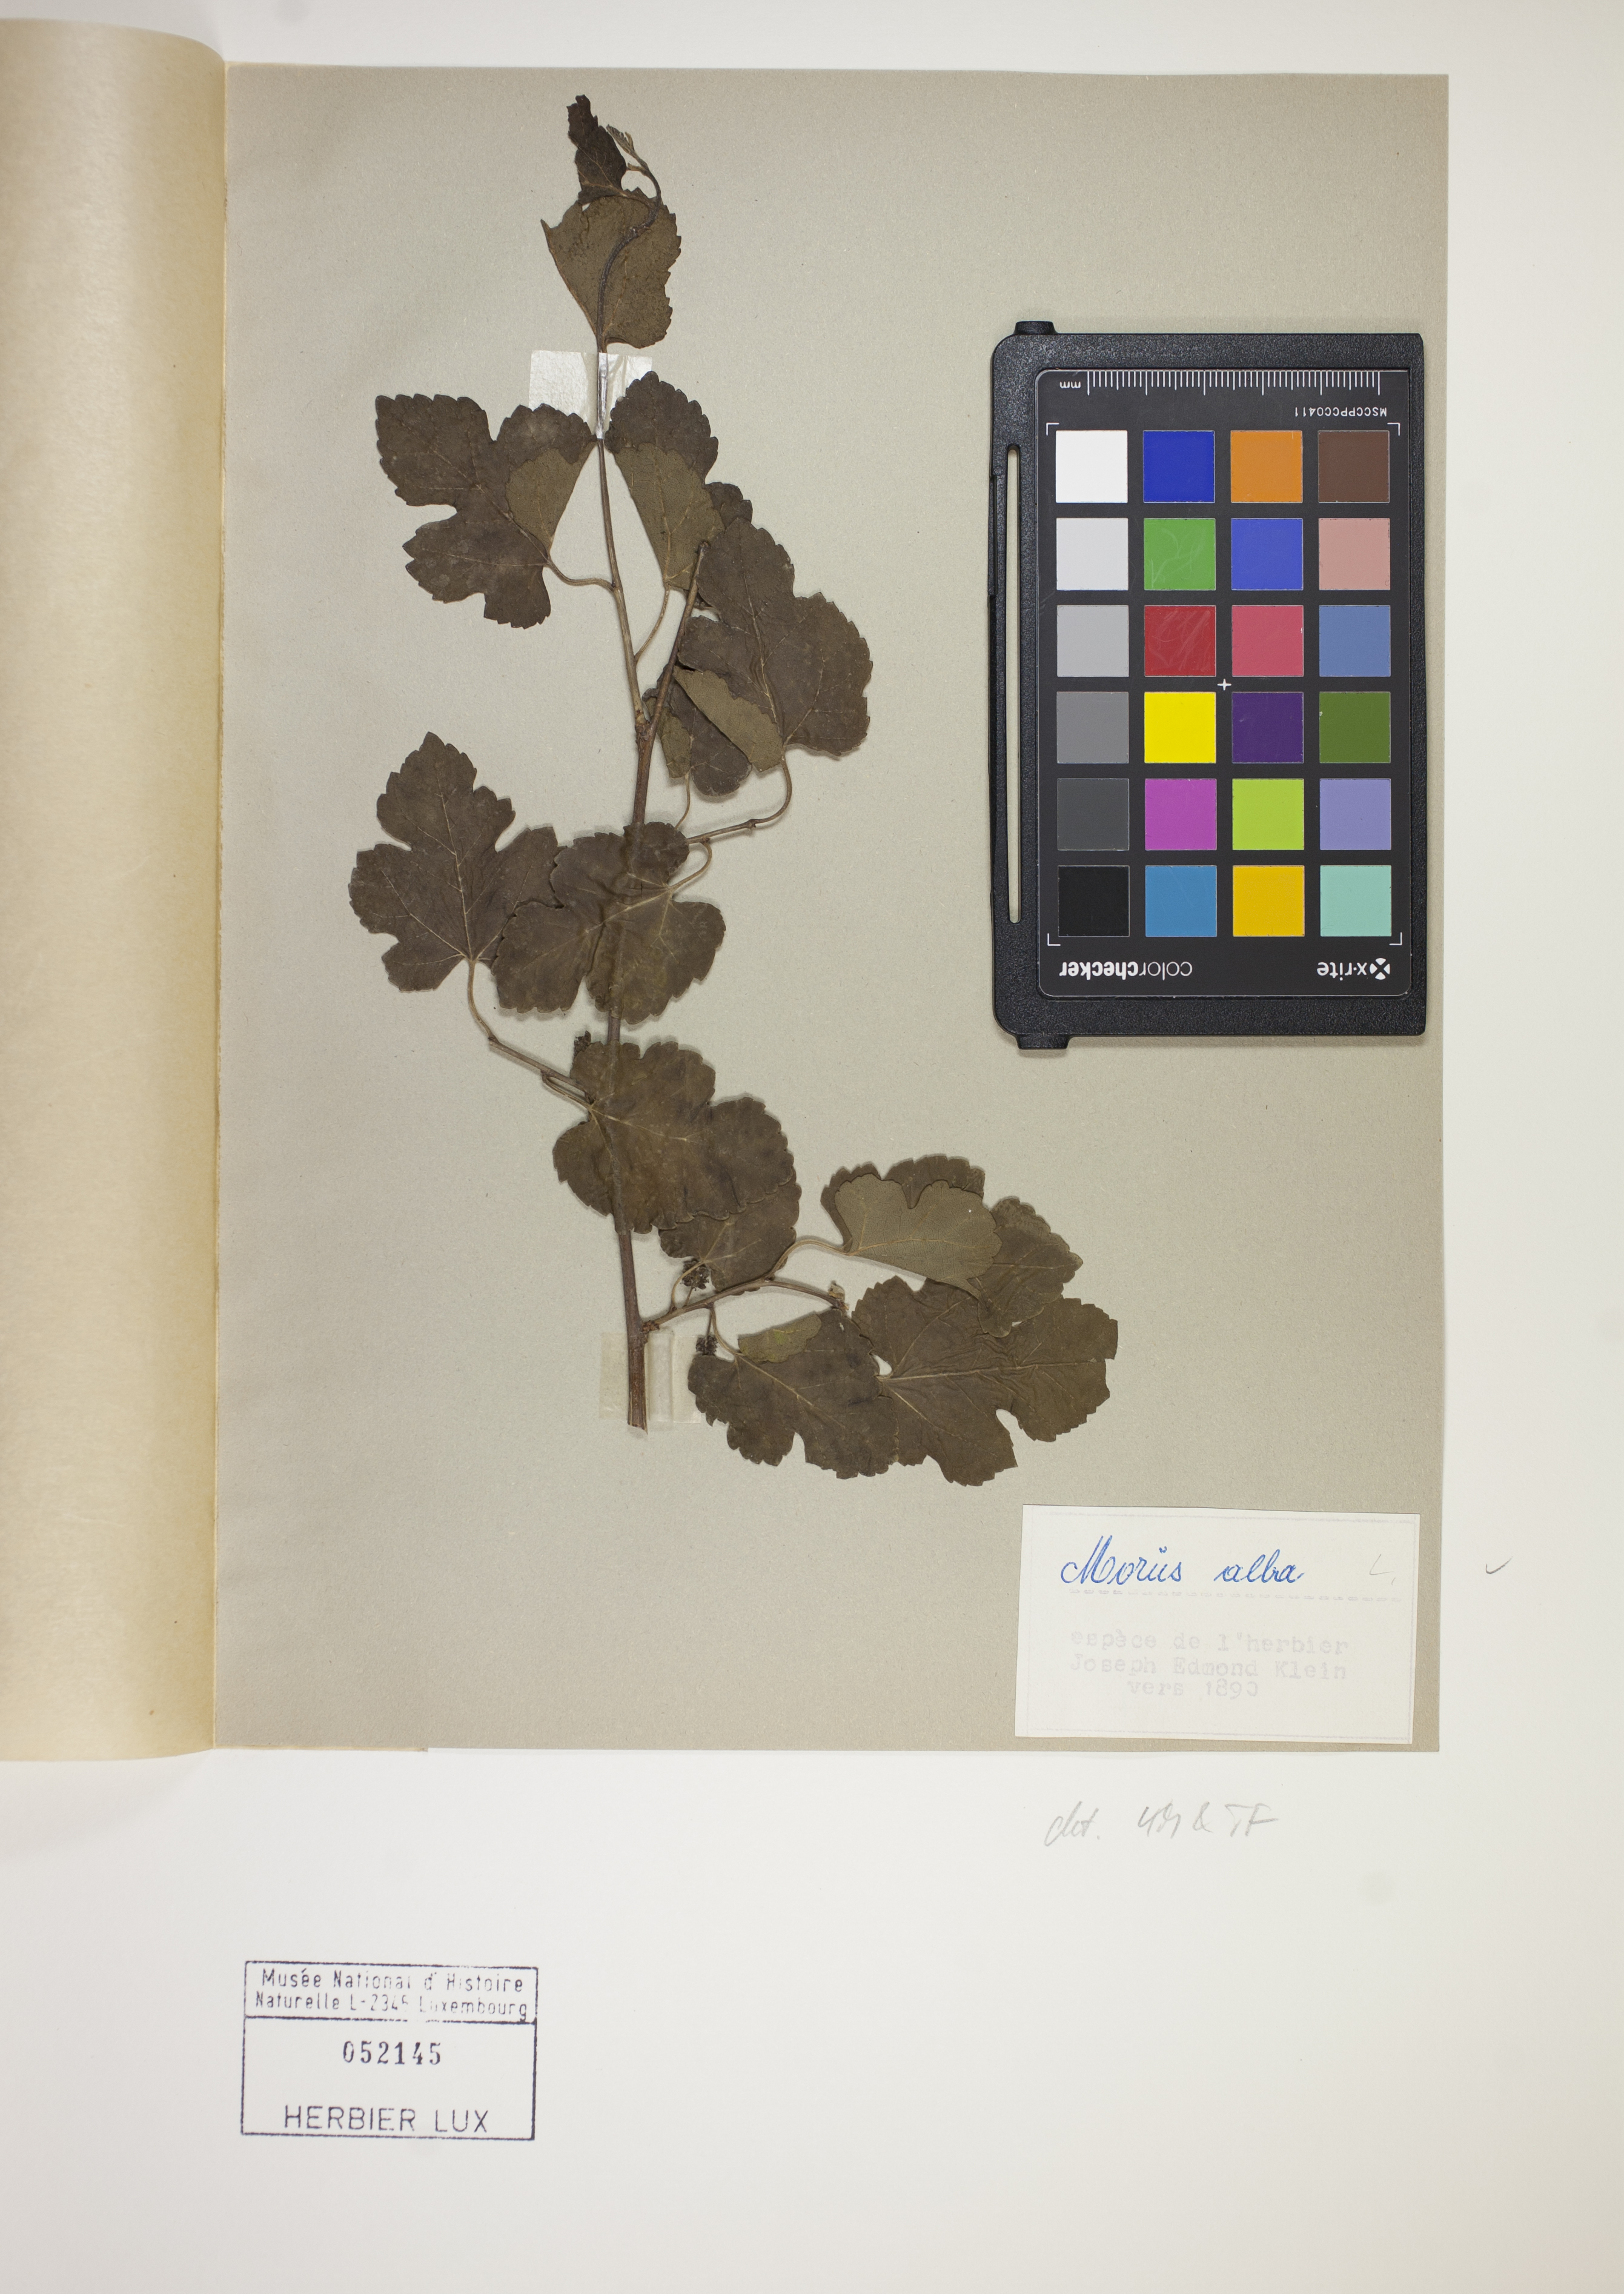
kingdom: Plantae
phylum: Tracheophyta
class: Magnoliopsida
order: Rosales
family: Moraceae
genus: Morus
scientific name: Morus alba
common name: White mulberry
